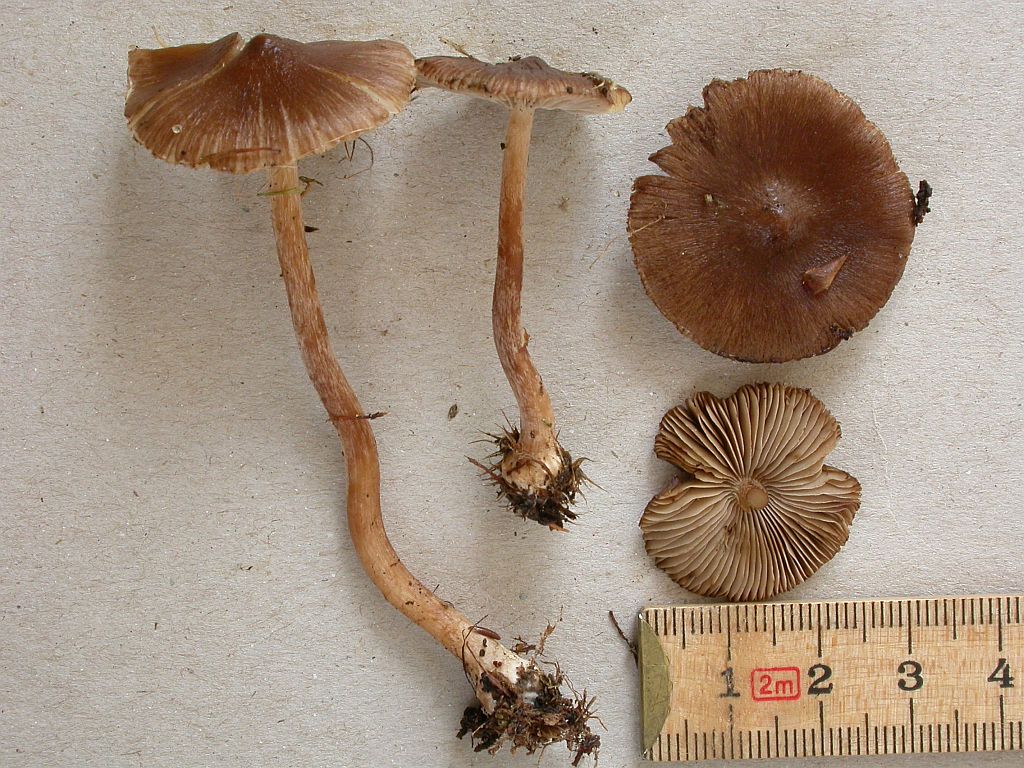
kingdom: Fungi
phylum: Basidiomycota
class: Agaricomycetes
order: Agaricales
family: Inocybaceae
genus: Inocybe
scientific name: Inocybe napipes
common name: roeknoldet trævlhat
